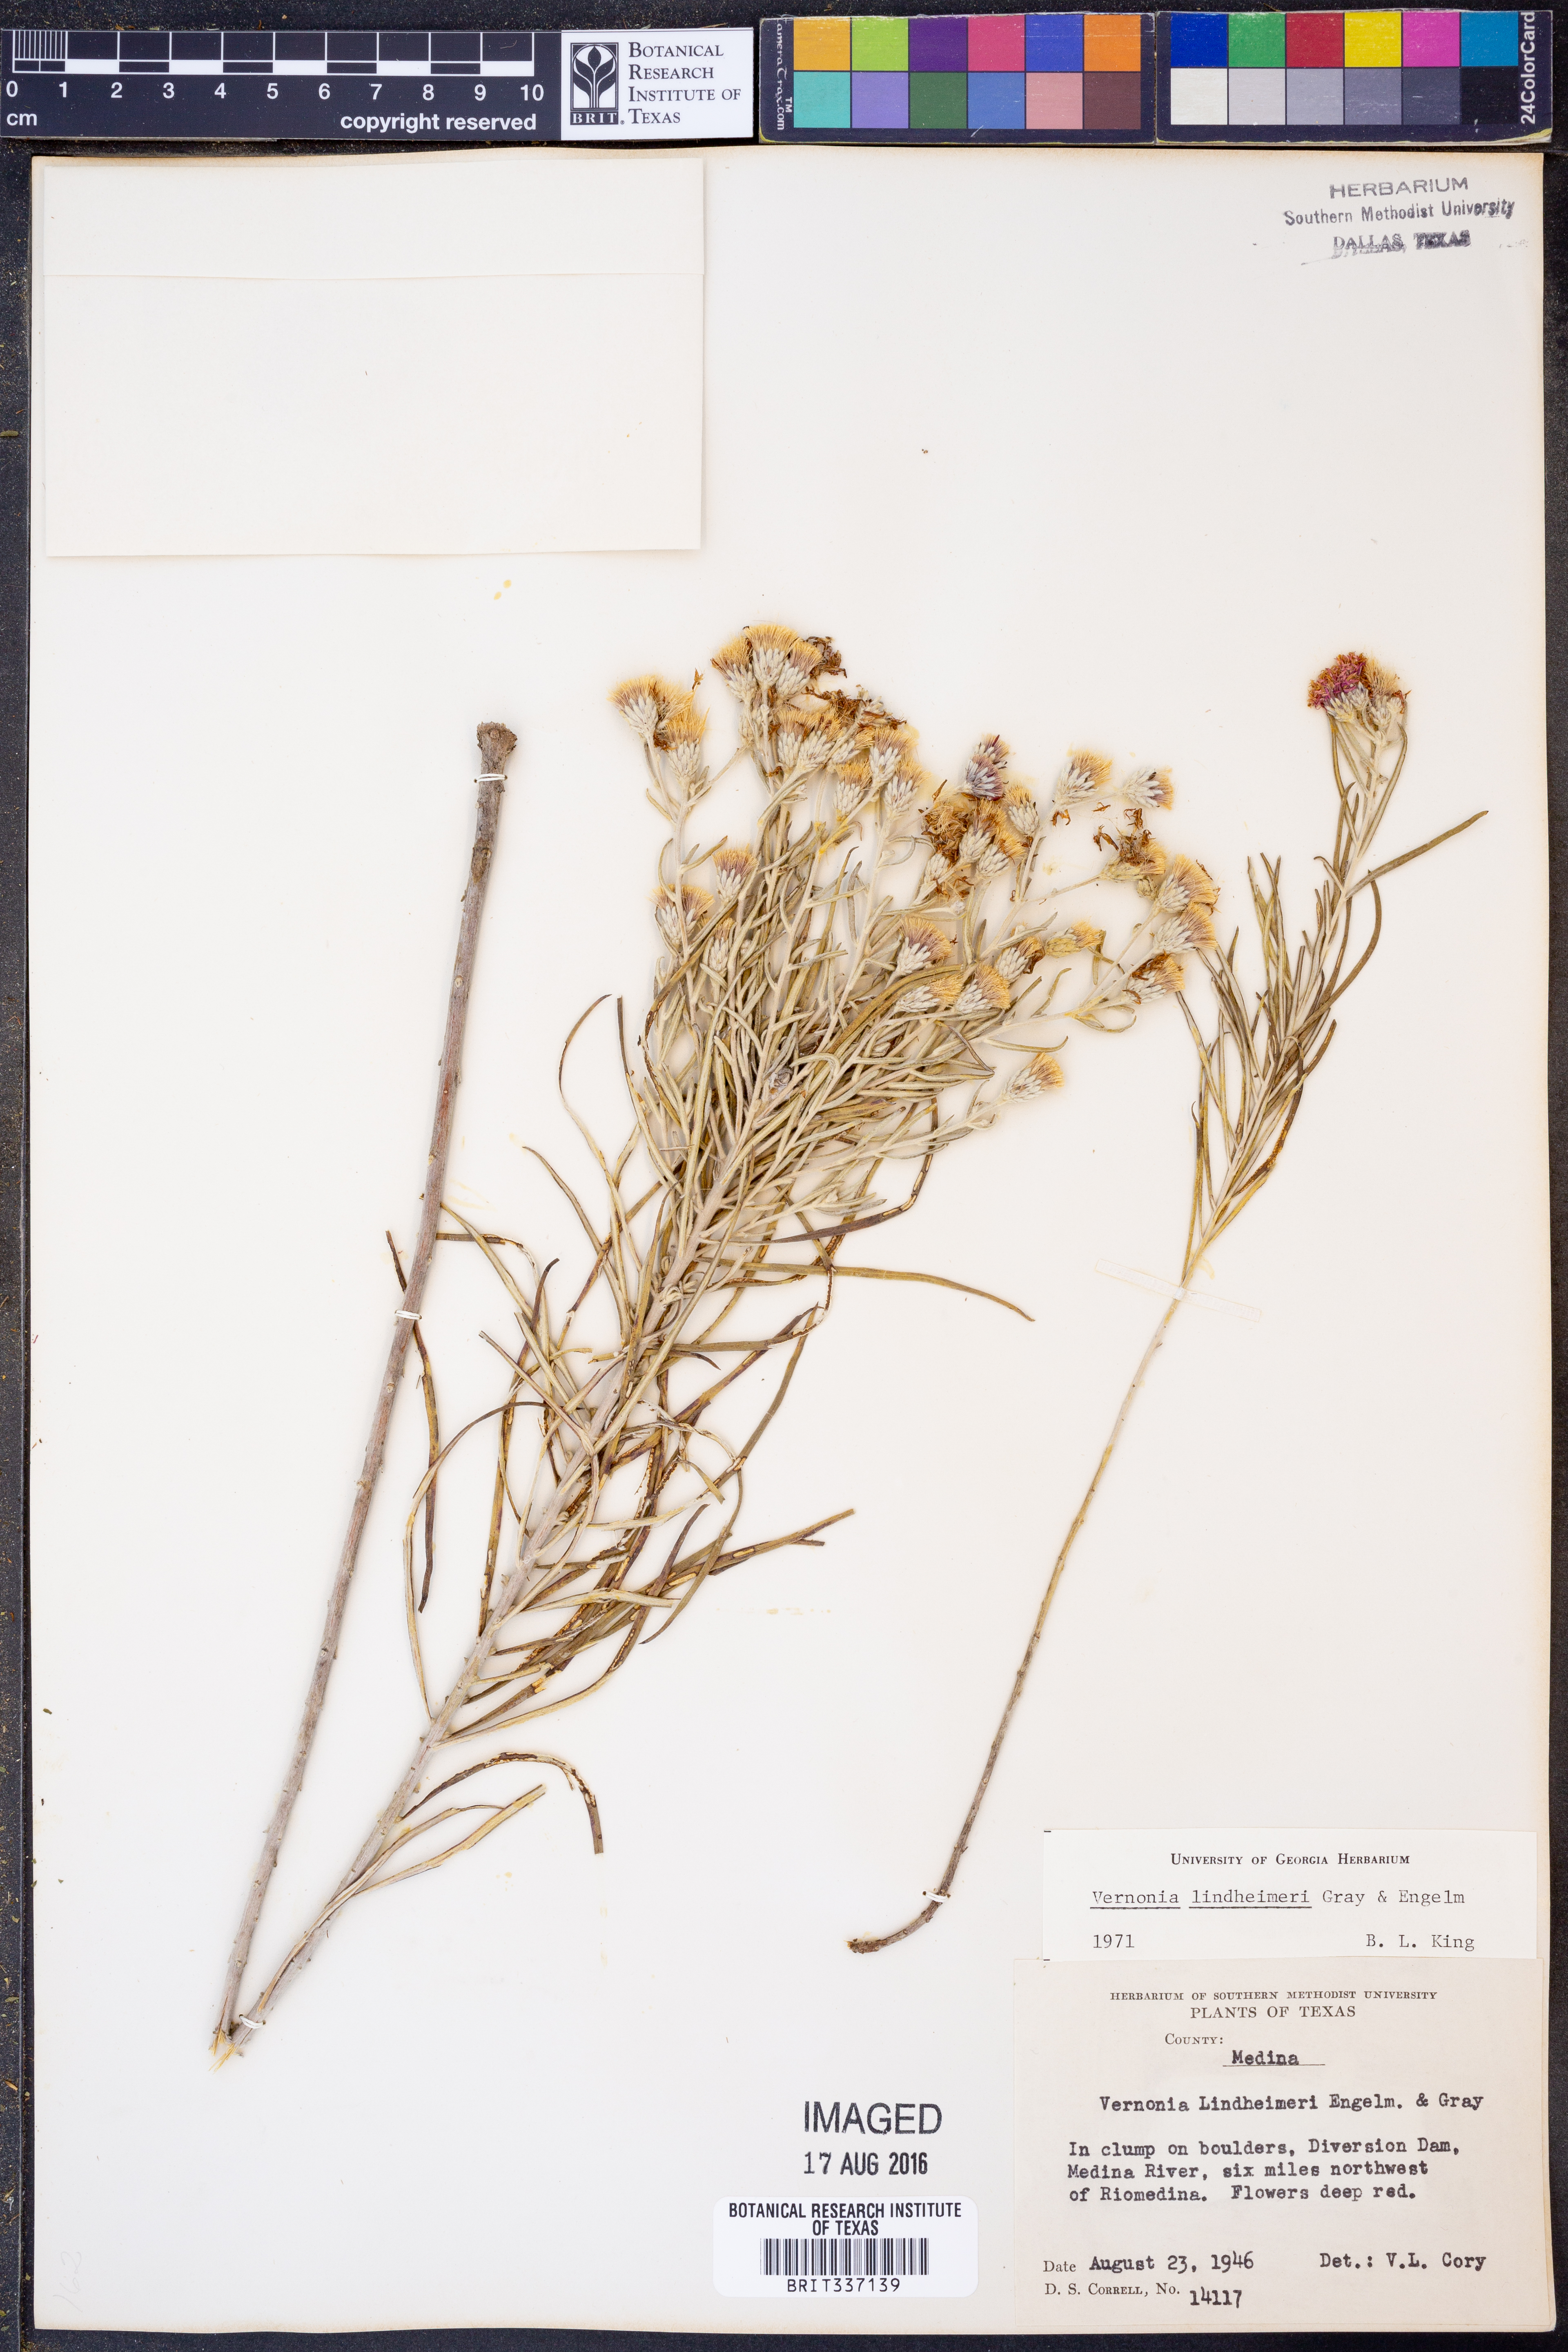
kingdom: Plantae
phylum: Tracheophyta
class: Magnoliopsida
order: Asterales
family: Asteraceae
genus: Vernonia
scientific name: Vernonia lindheimeri
